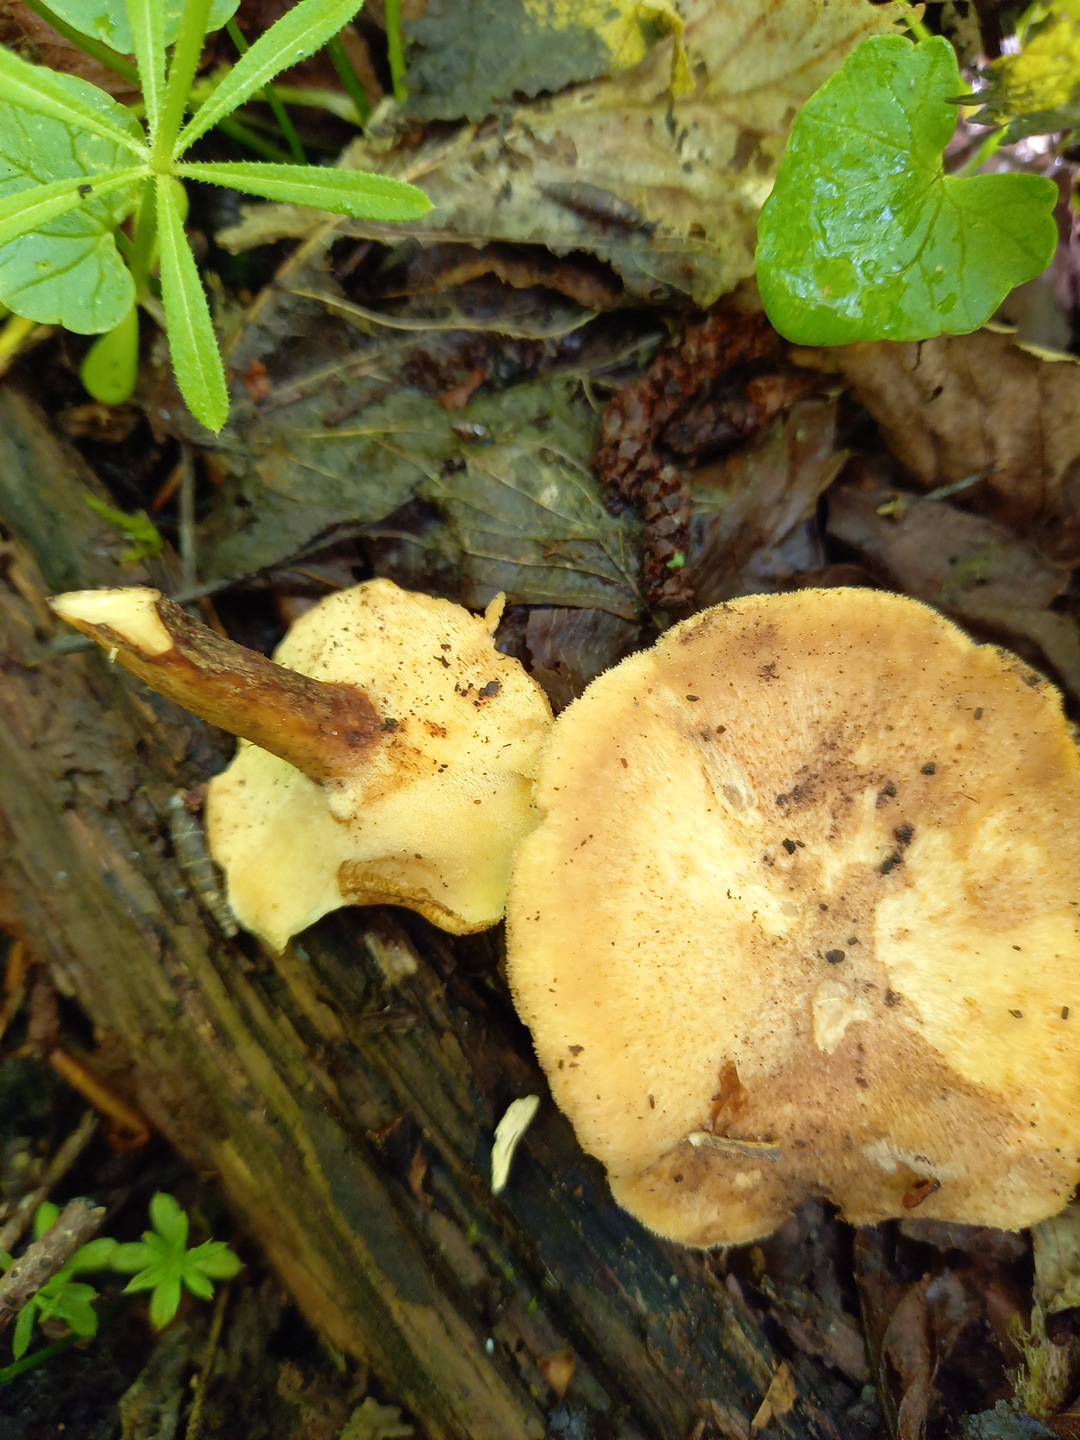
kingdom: Fungi
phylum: Basidiomycota
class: Agaricomycetes
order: Polyporales
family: Polyporaceae
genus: Lentinus
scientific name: Lentinus brumalis
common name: vinter-stilkporesvamp
